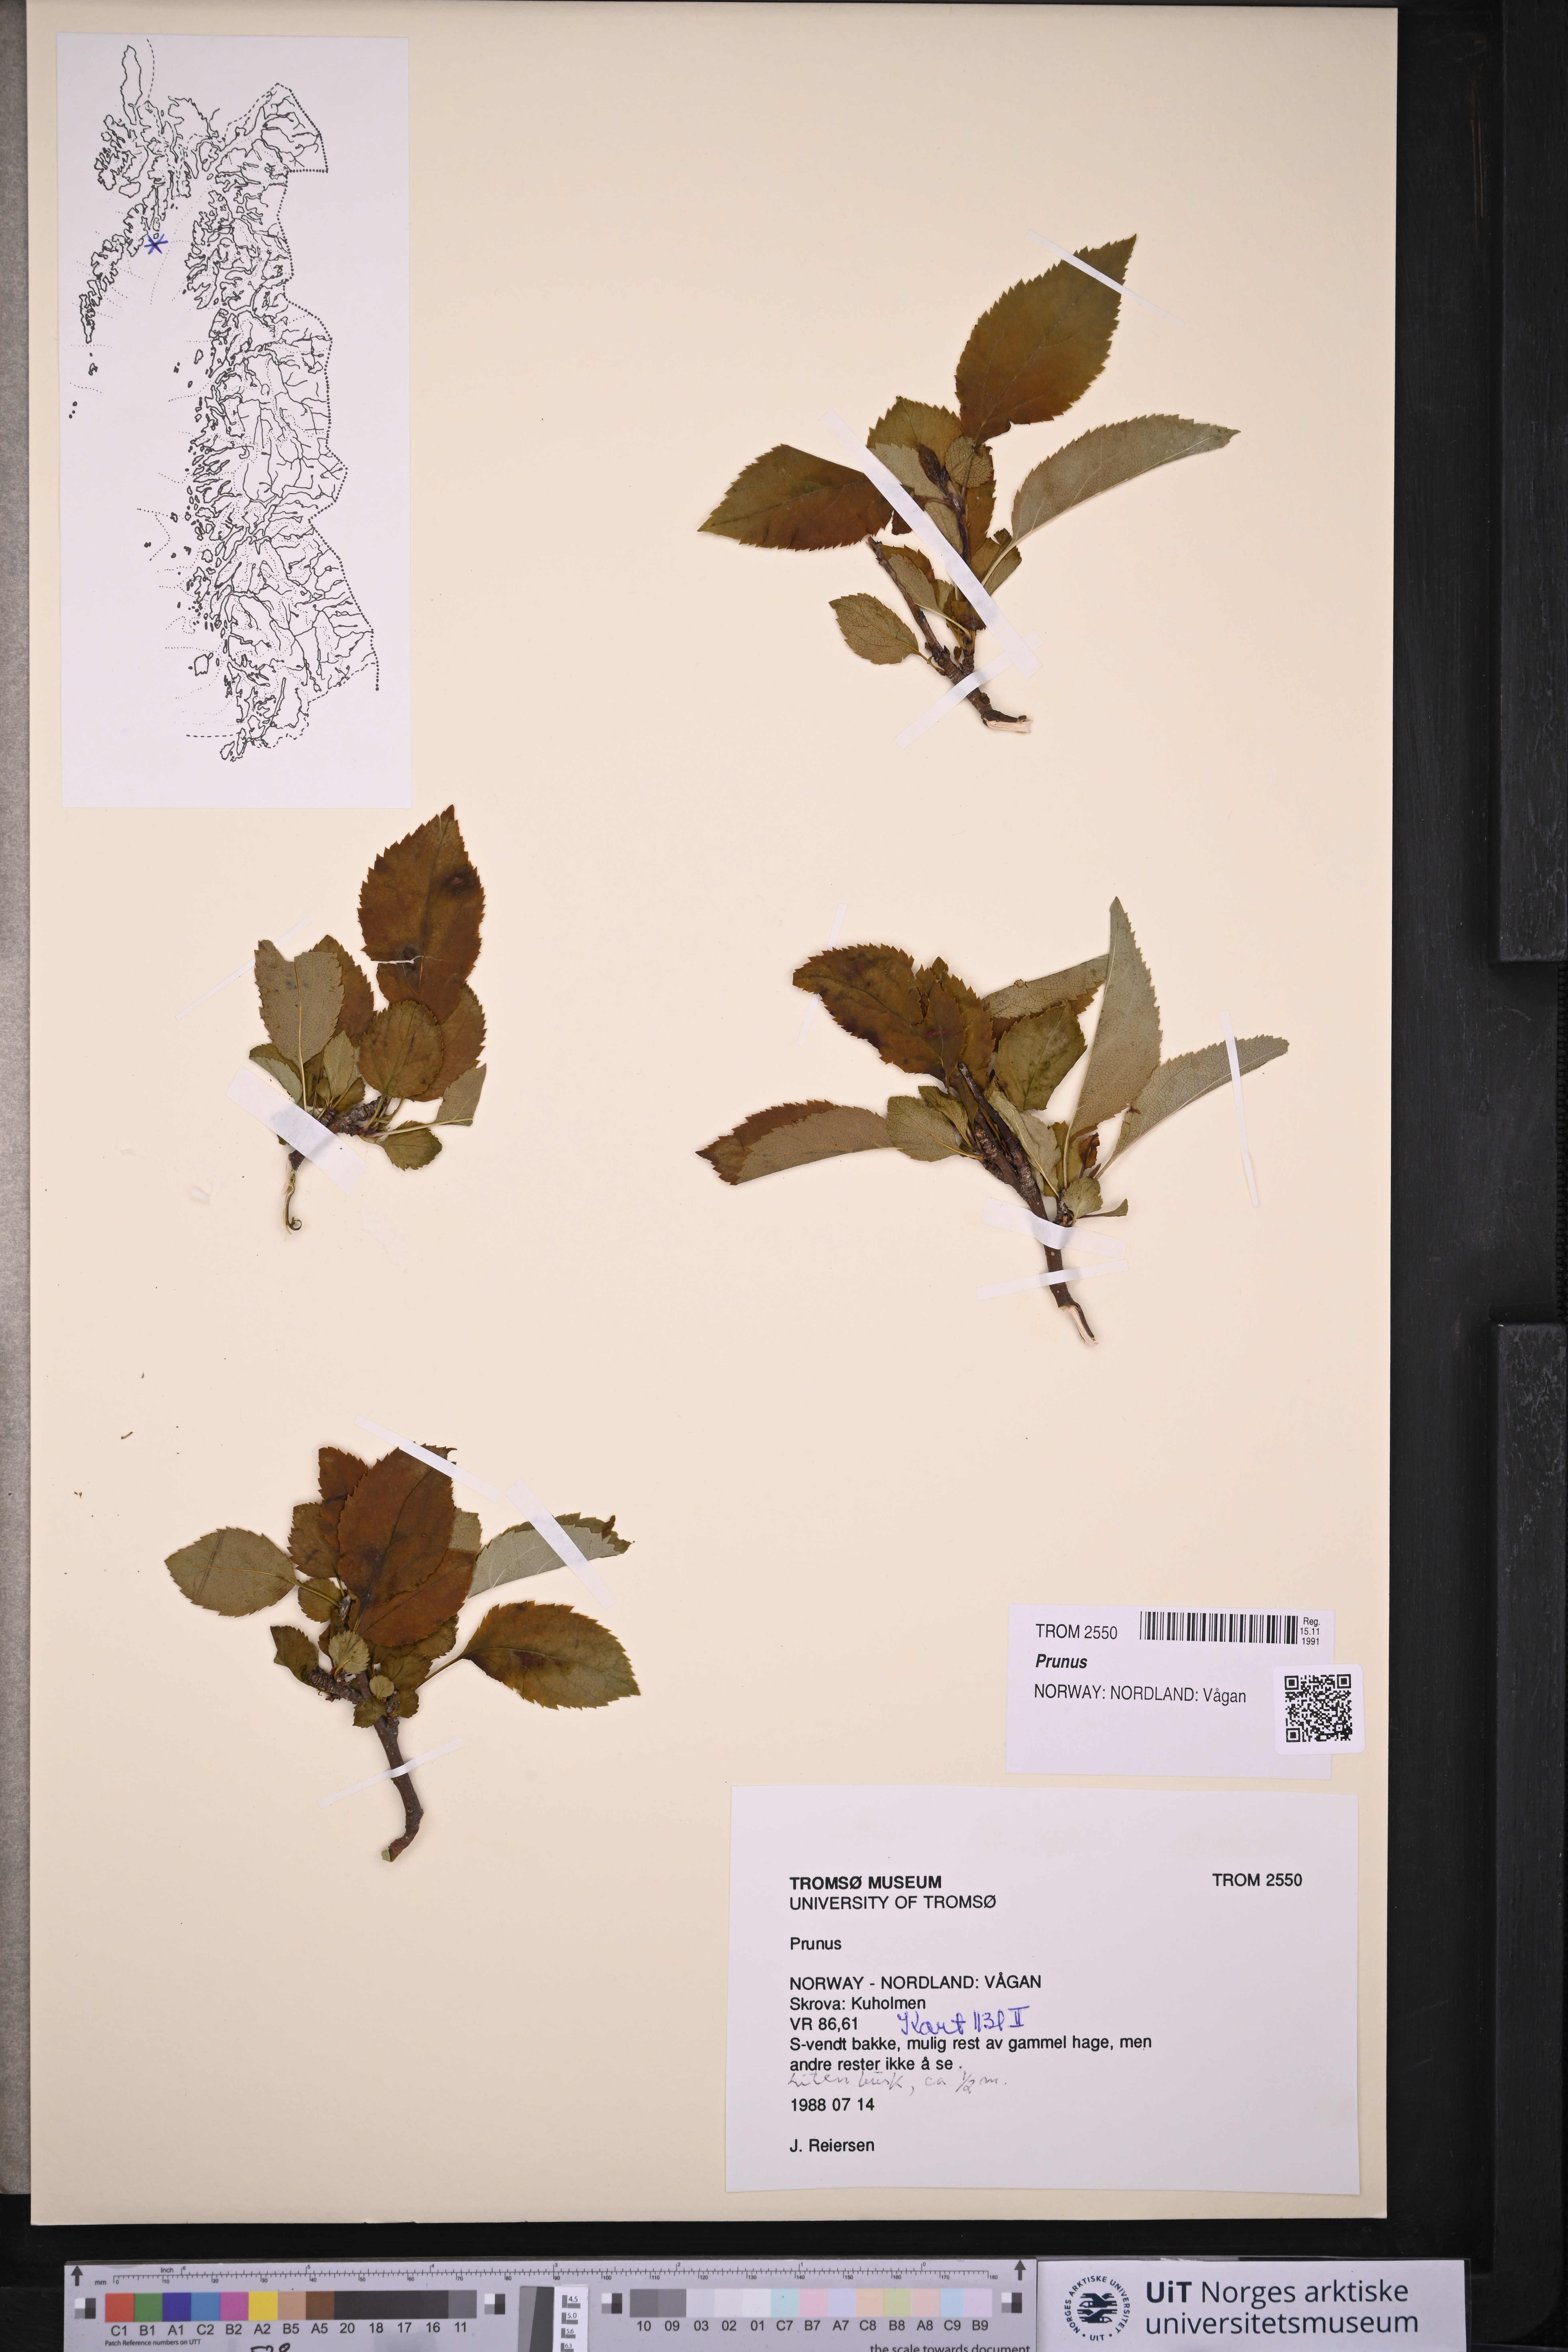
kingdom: Plantae
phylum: Tracheophyta
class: Magnoliopsida
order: Rosales
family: Rosaceae
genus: Prunus
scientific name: Prunus
